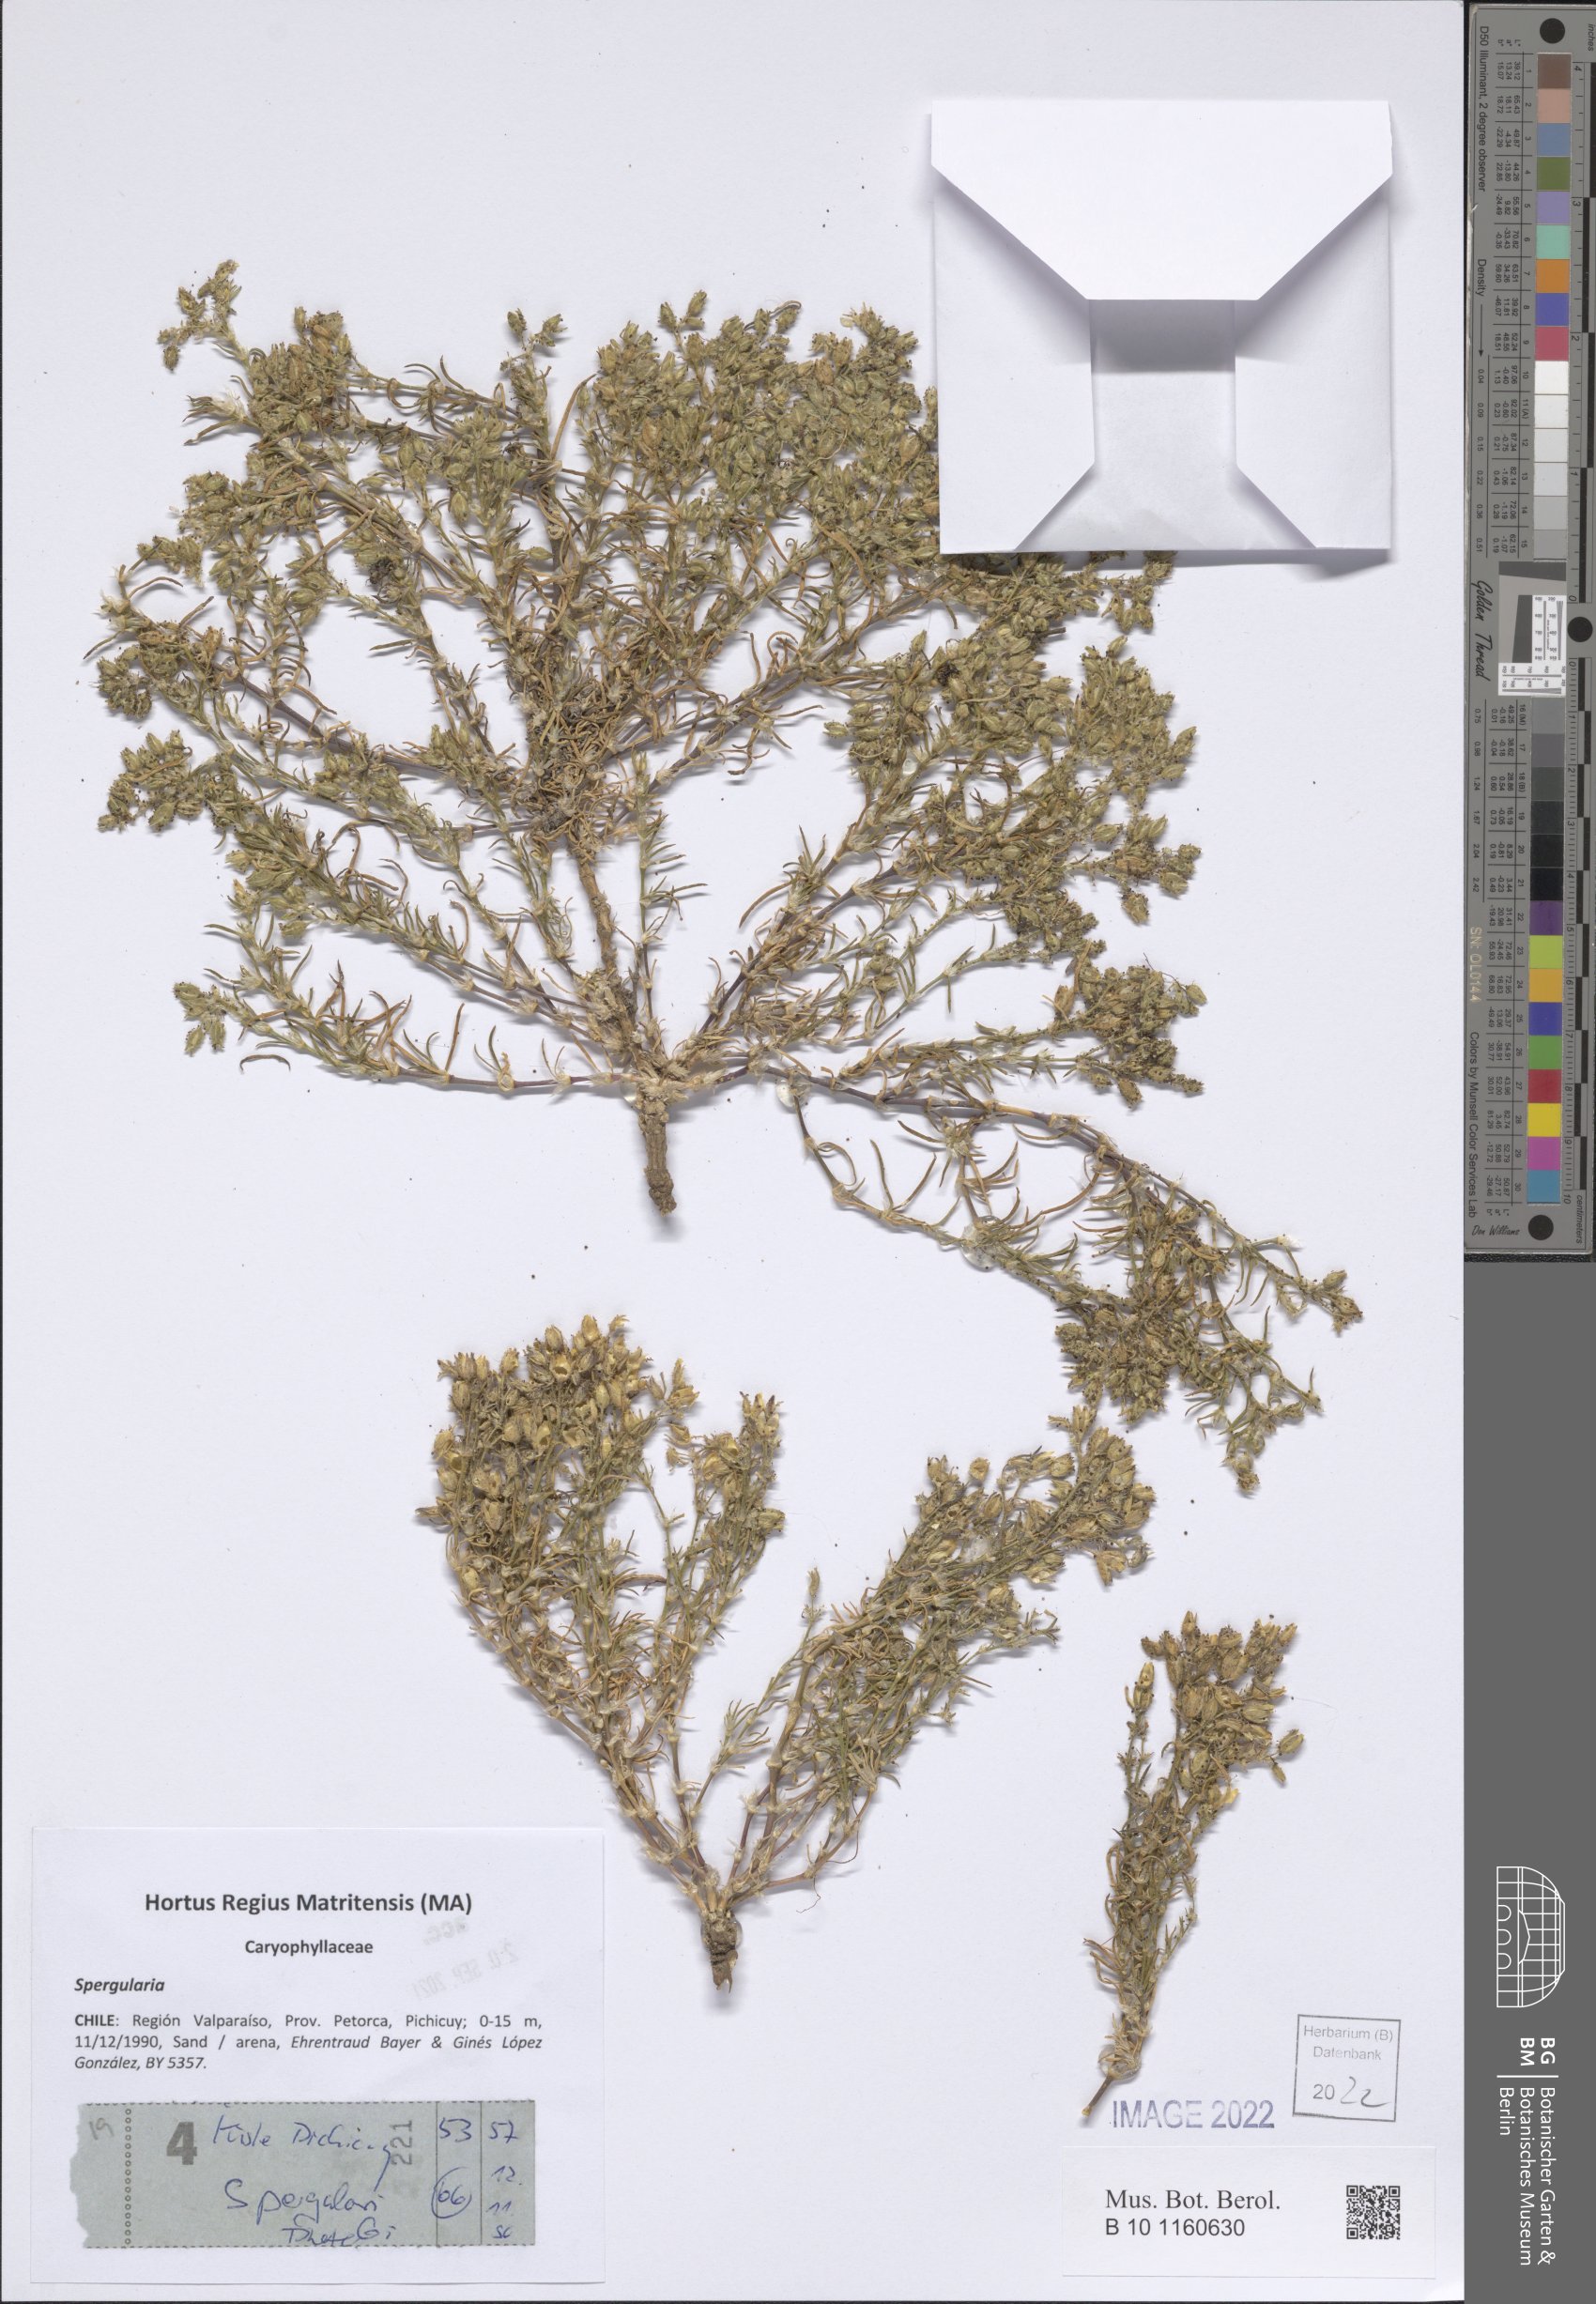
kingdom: Plantae
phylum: Tracheophyta
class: Magnoliopsida
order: Caryophyllales
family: Caryophyllaceae
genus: Spergularia
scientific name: Spergularia
